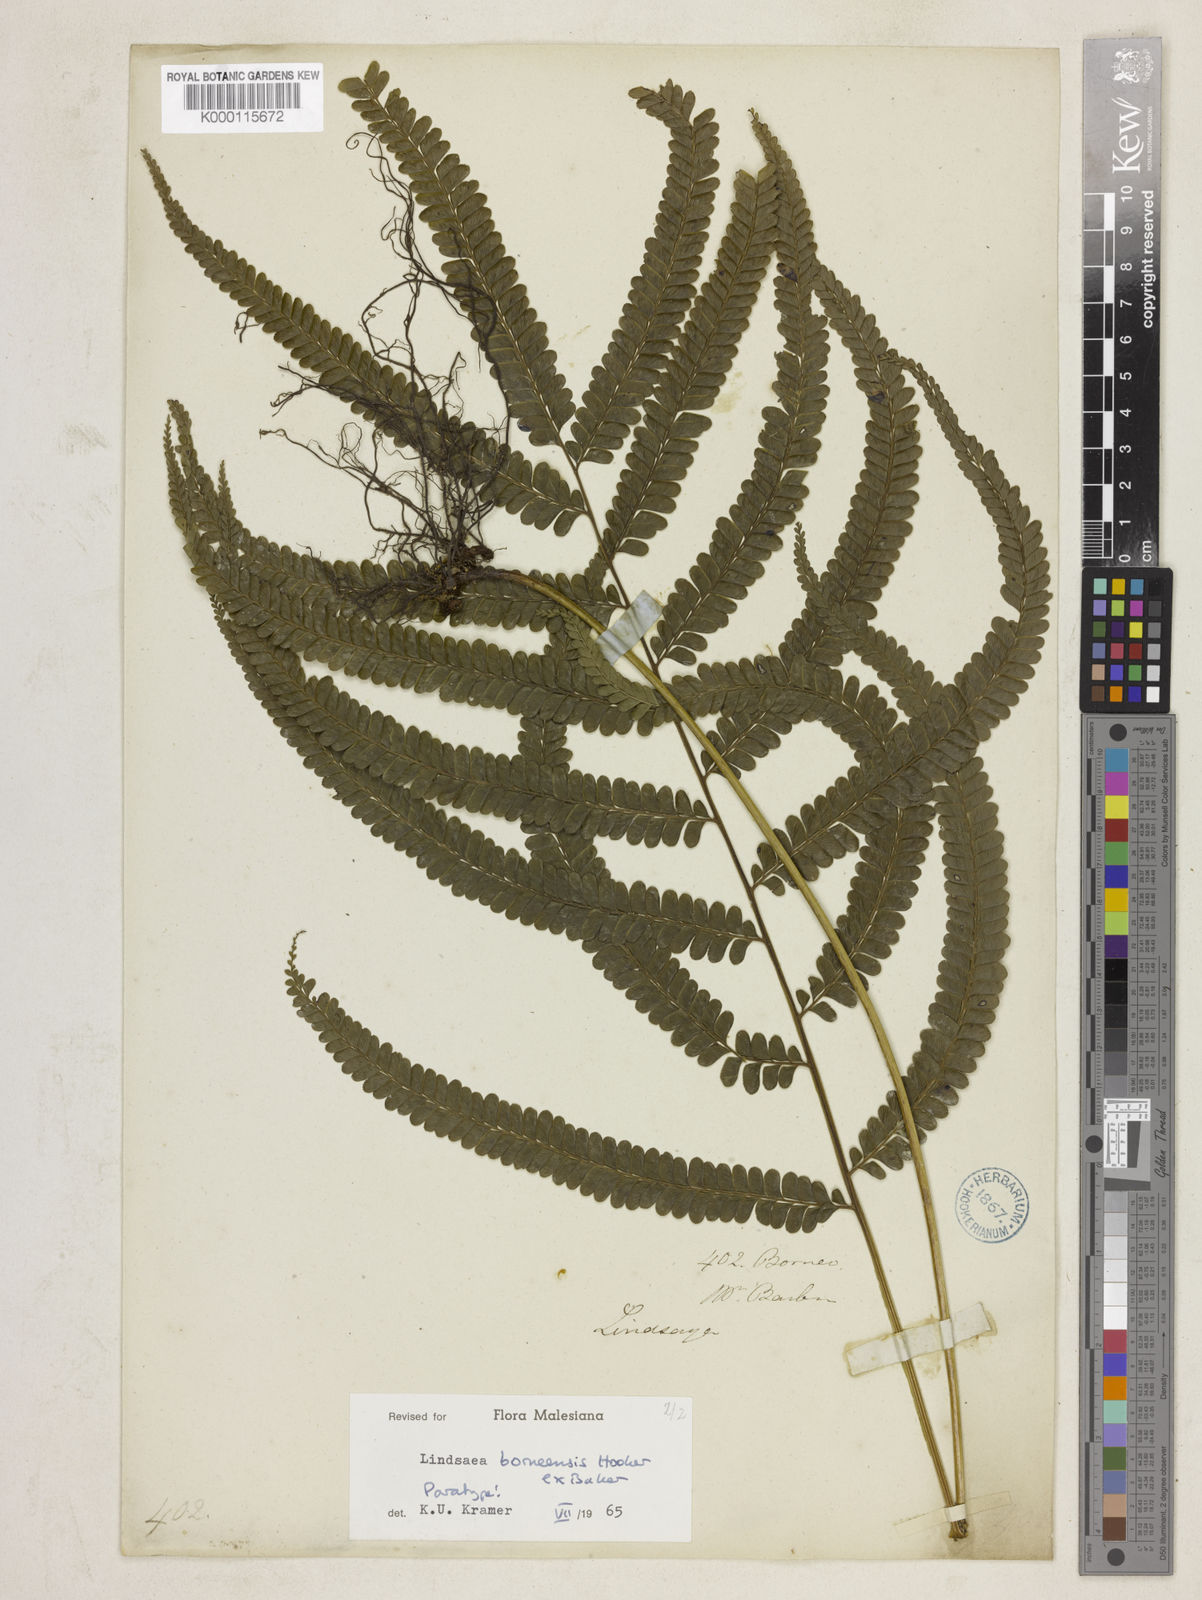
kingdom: Plantae
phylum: Tracheophyta
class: Polypodiopsida
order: Polypodiales
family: Lindsaeaceae
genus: Lindsaea
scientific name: Lindsaea
